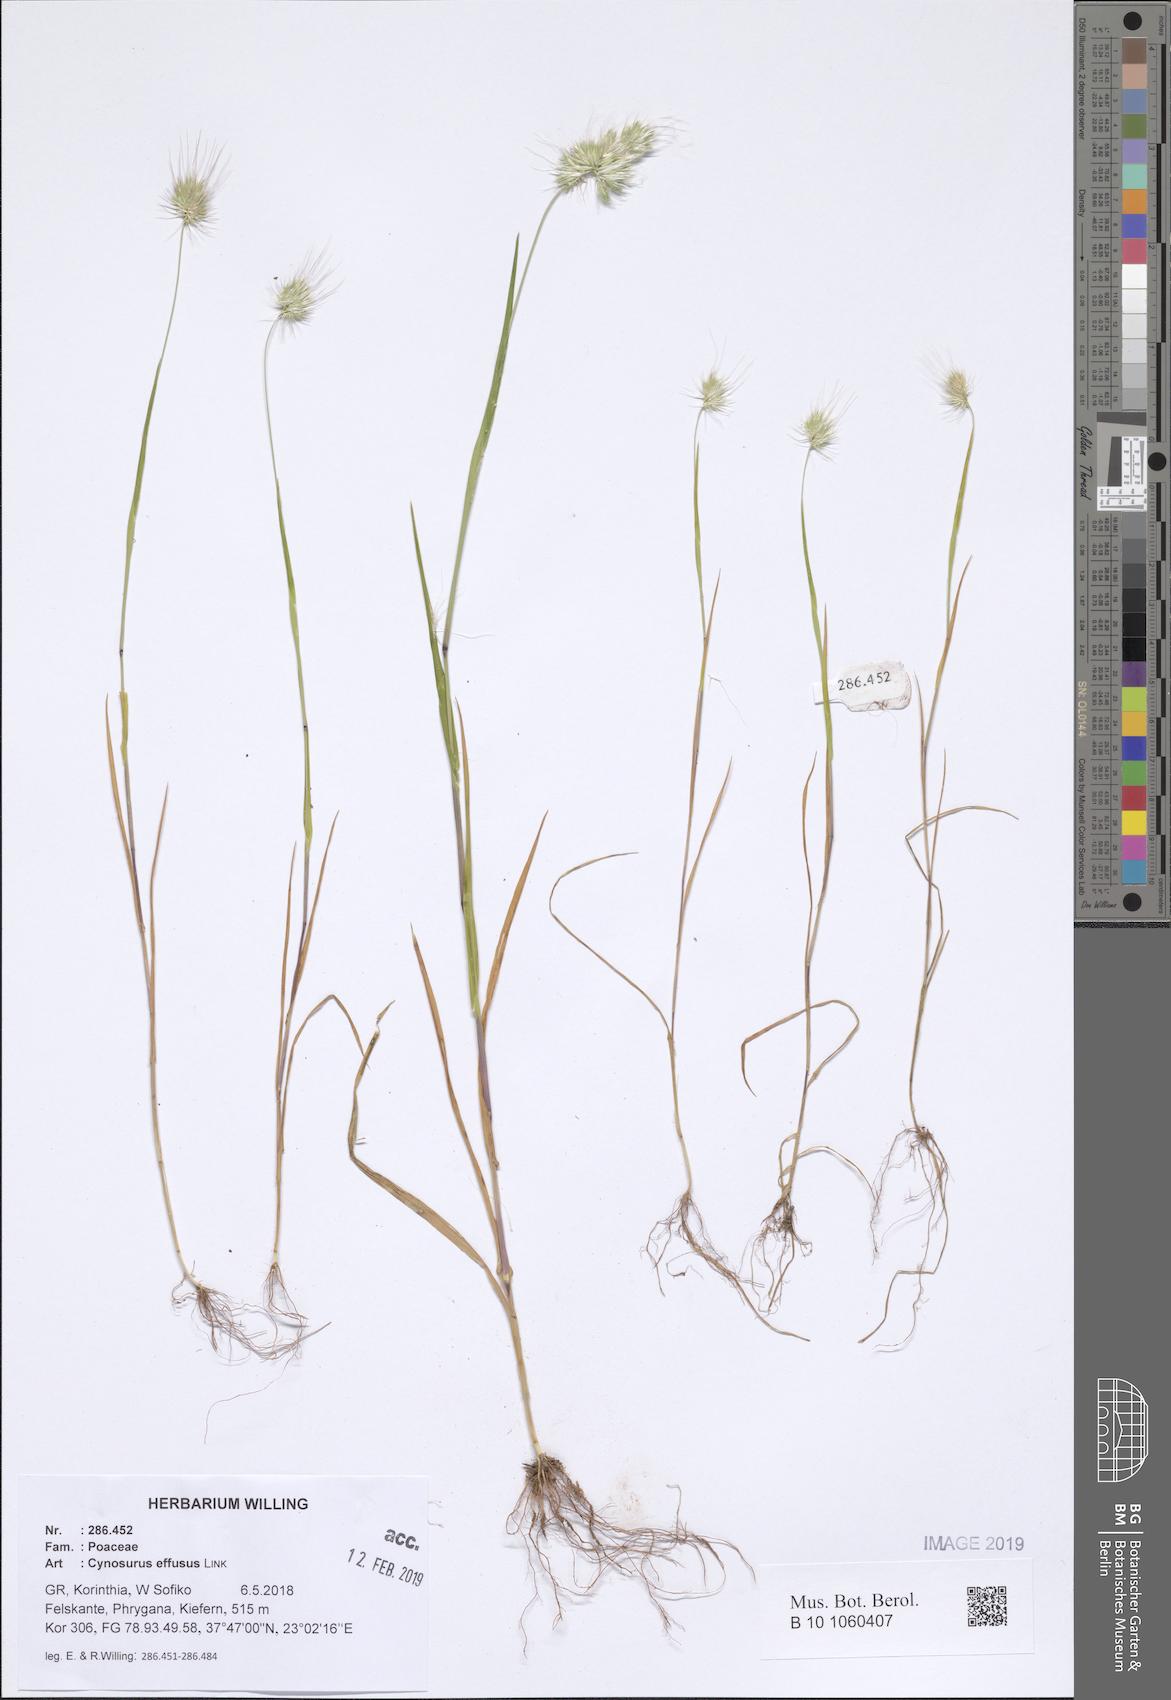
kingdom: Plantae
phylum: Tracheophyta
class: Liliopsida
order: Poales
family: Poaceae
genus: Cynosurus
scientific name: Cynosurus effusus
